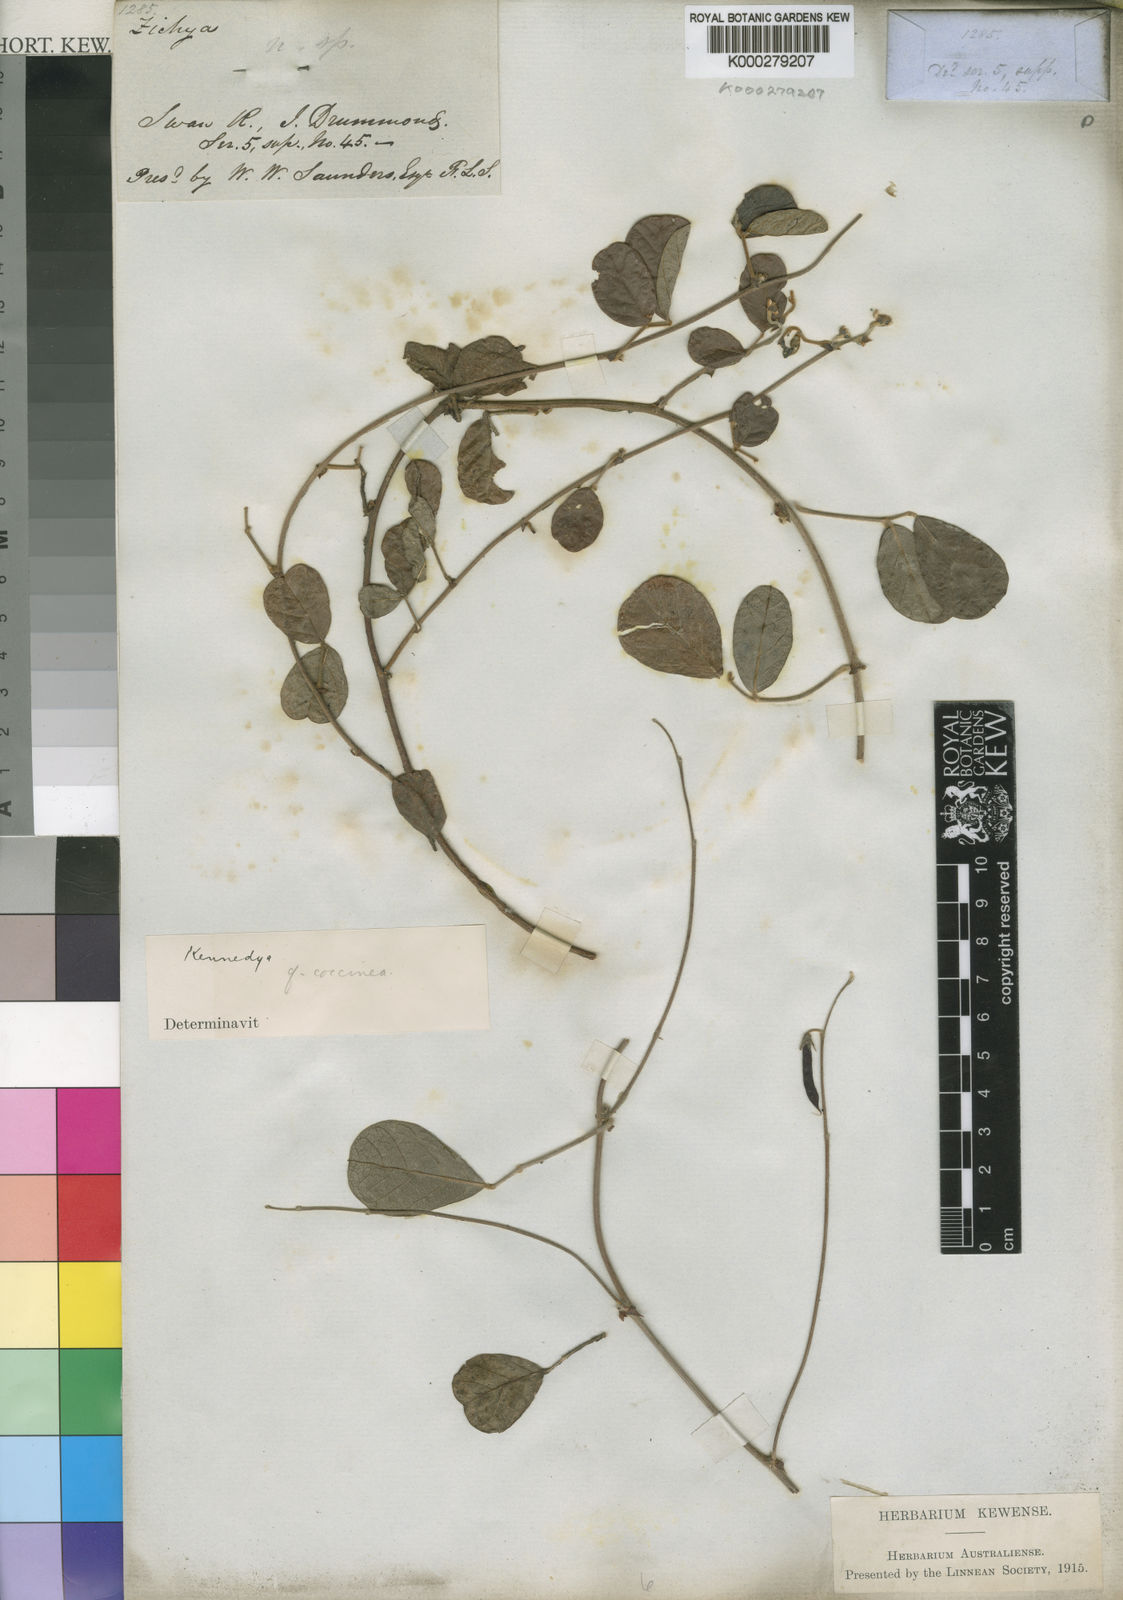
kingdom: Plantae
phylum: Tracheophyta
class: Magnoliopsida
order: Fabales
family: Fabaceae
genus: Kennedia
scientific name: Kennedia coccinea
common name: Coralvine
